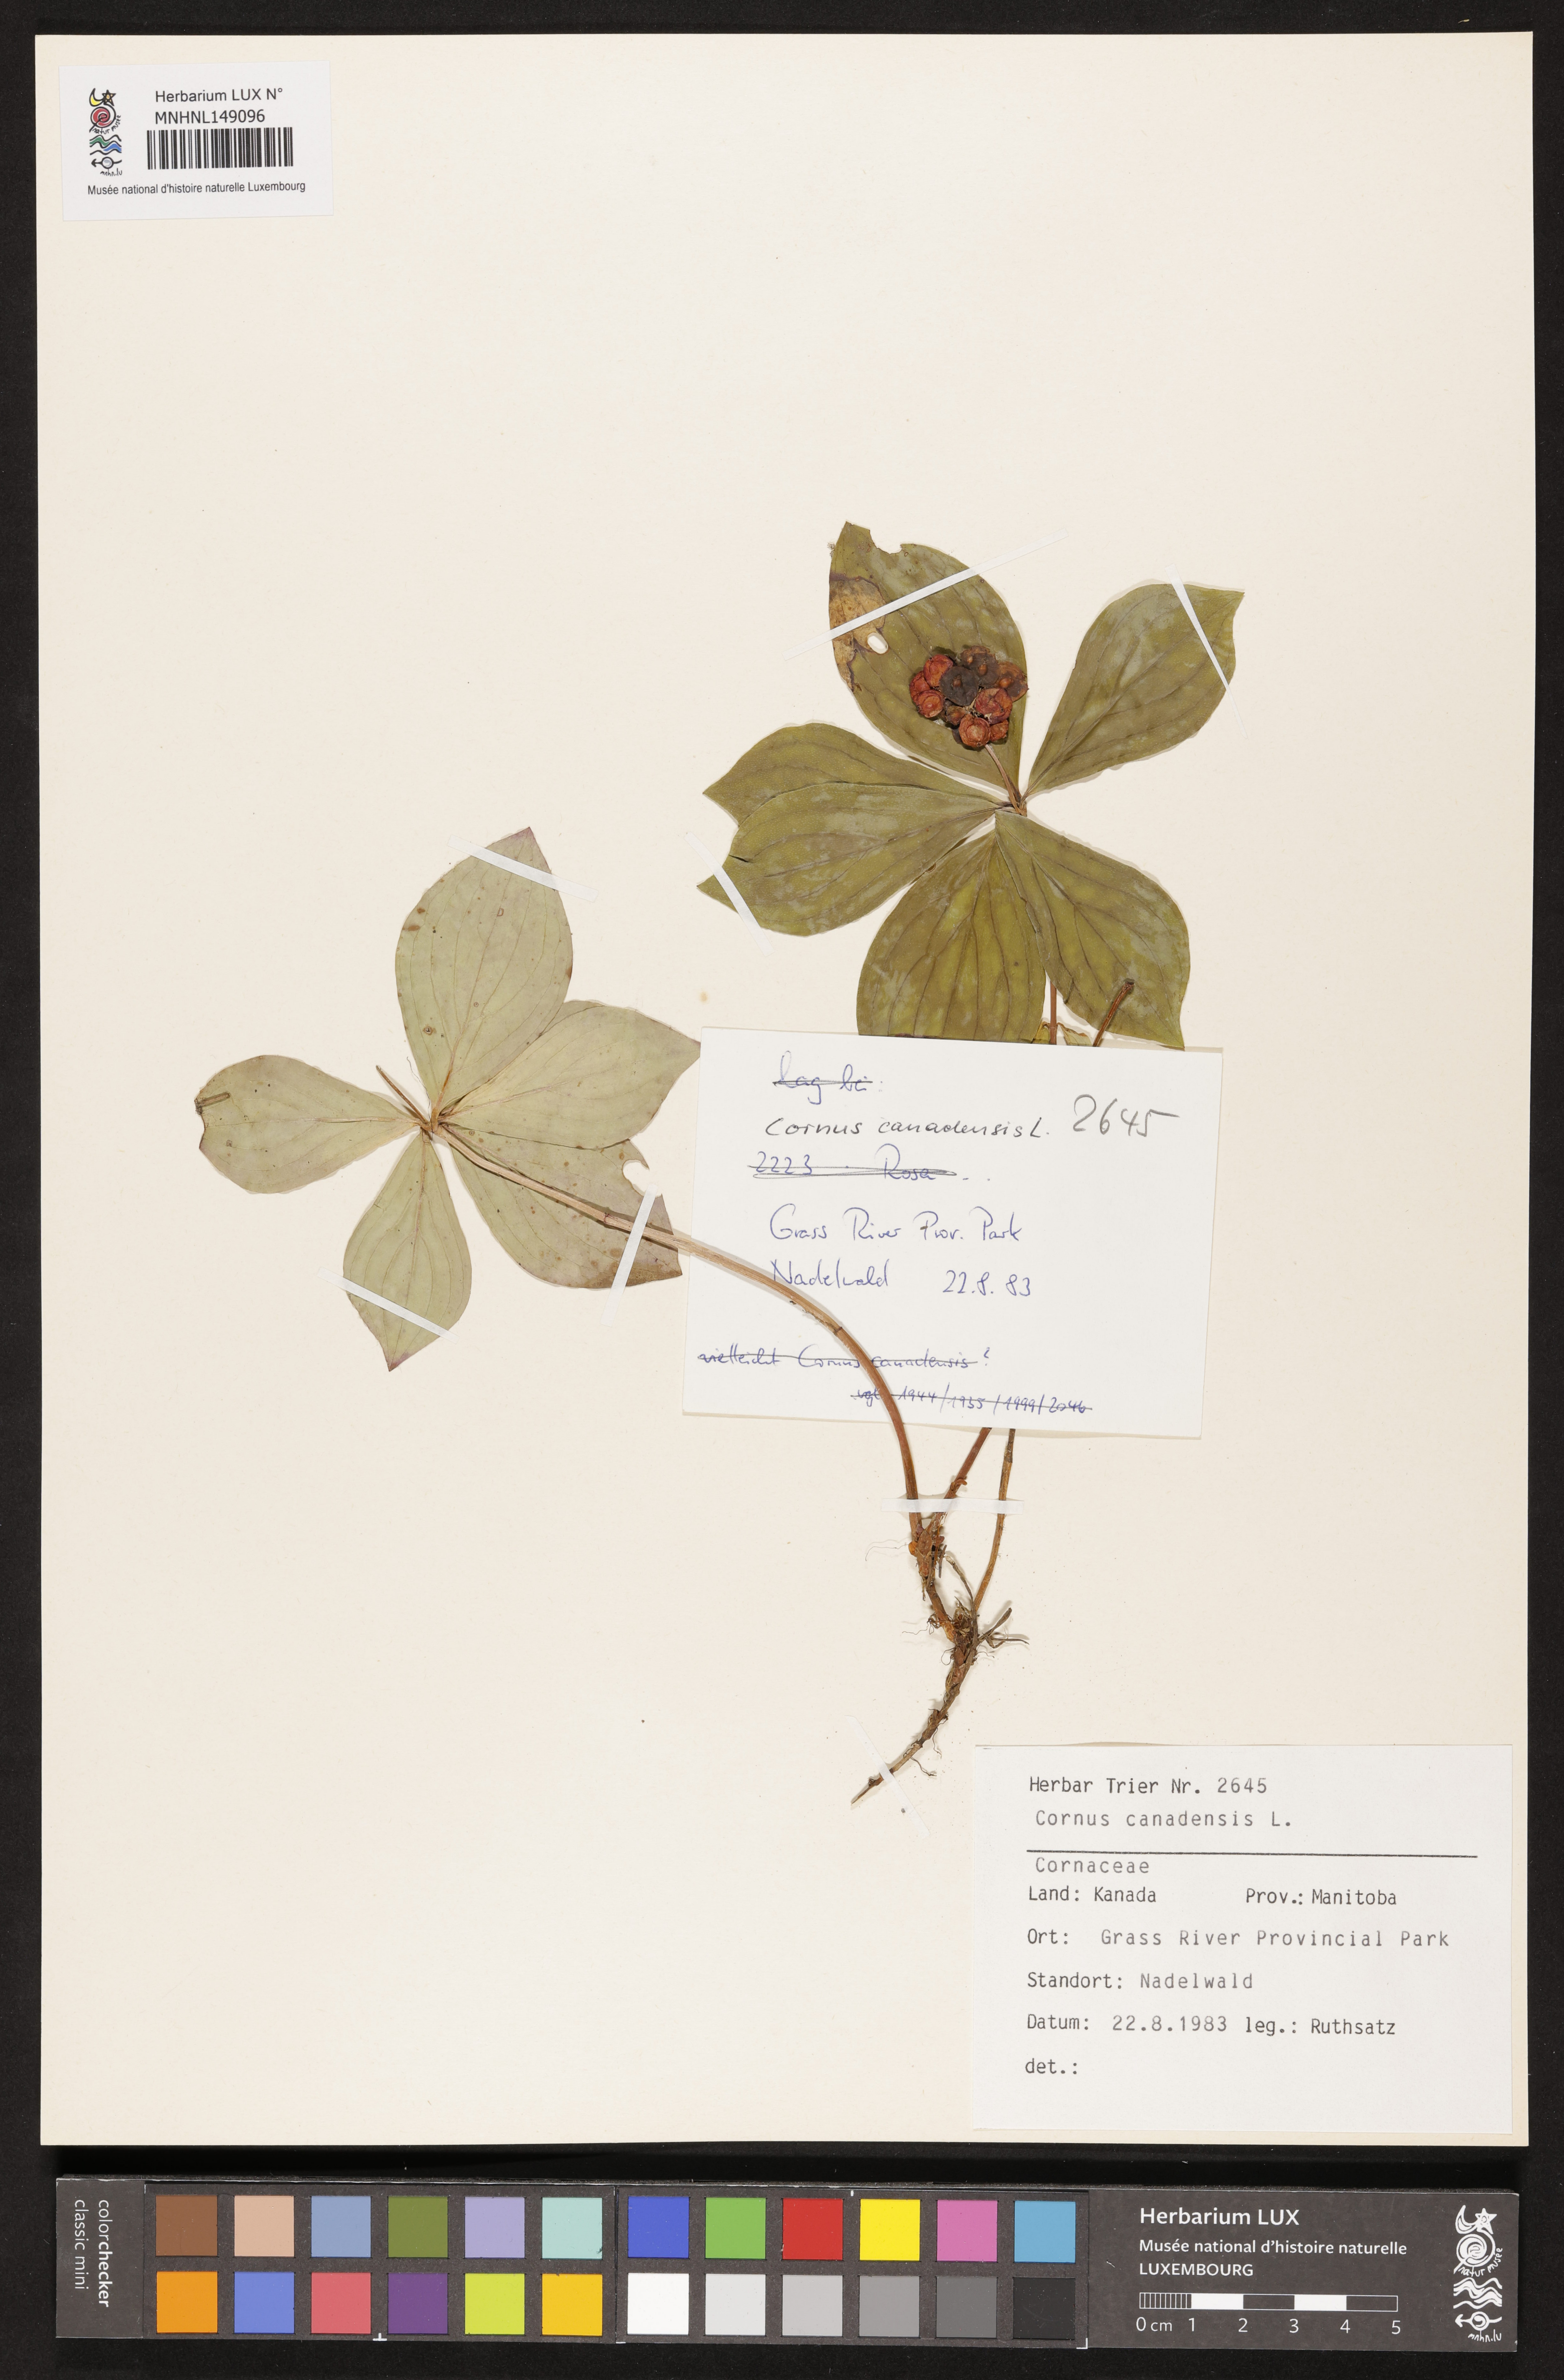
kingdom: Plantae
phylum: Tracheophyta
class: Magnoliopsida
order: Cornales
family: Cornaceae
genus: Cornus
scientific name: Cornus canadensis
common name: Creeping dogwood
